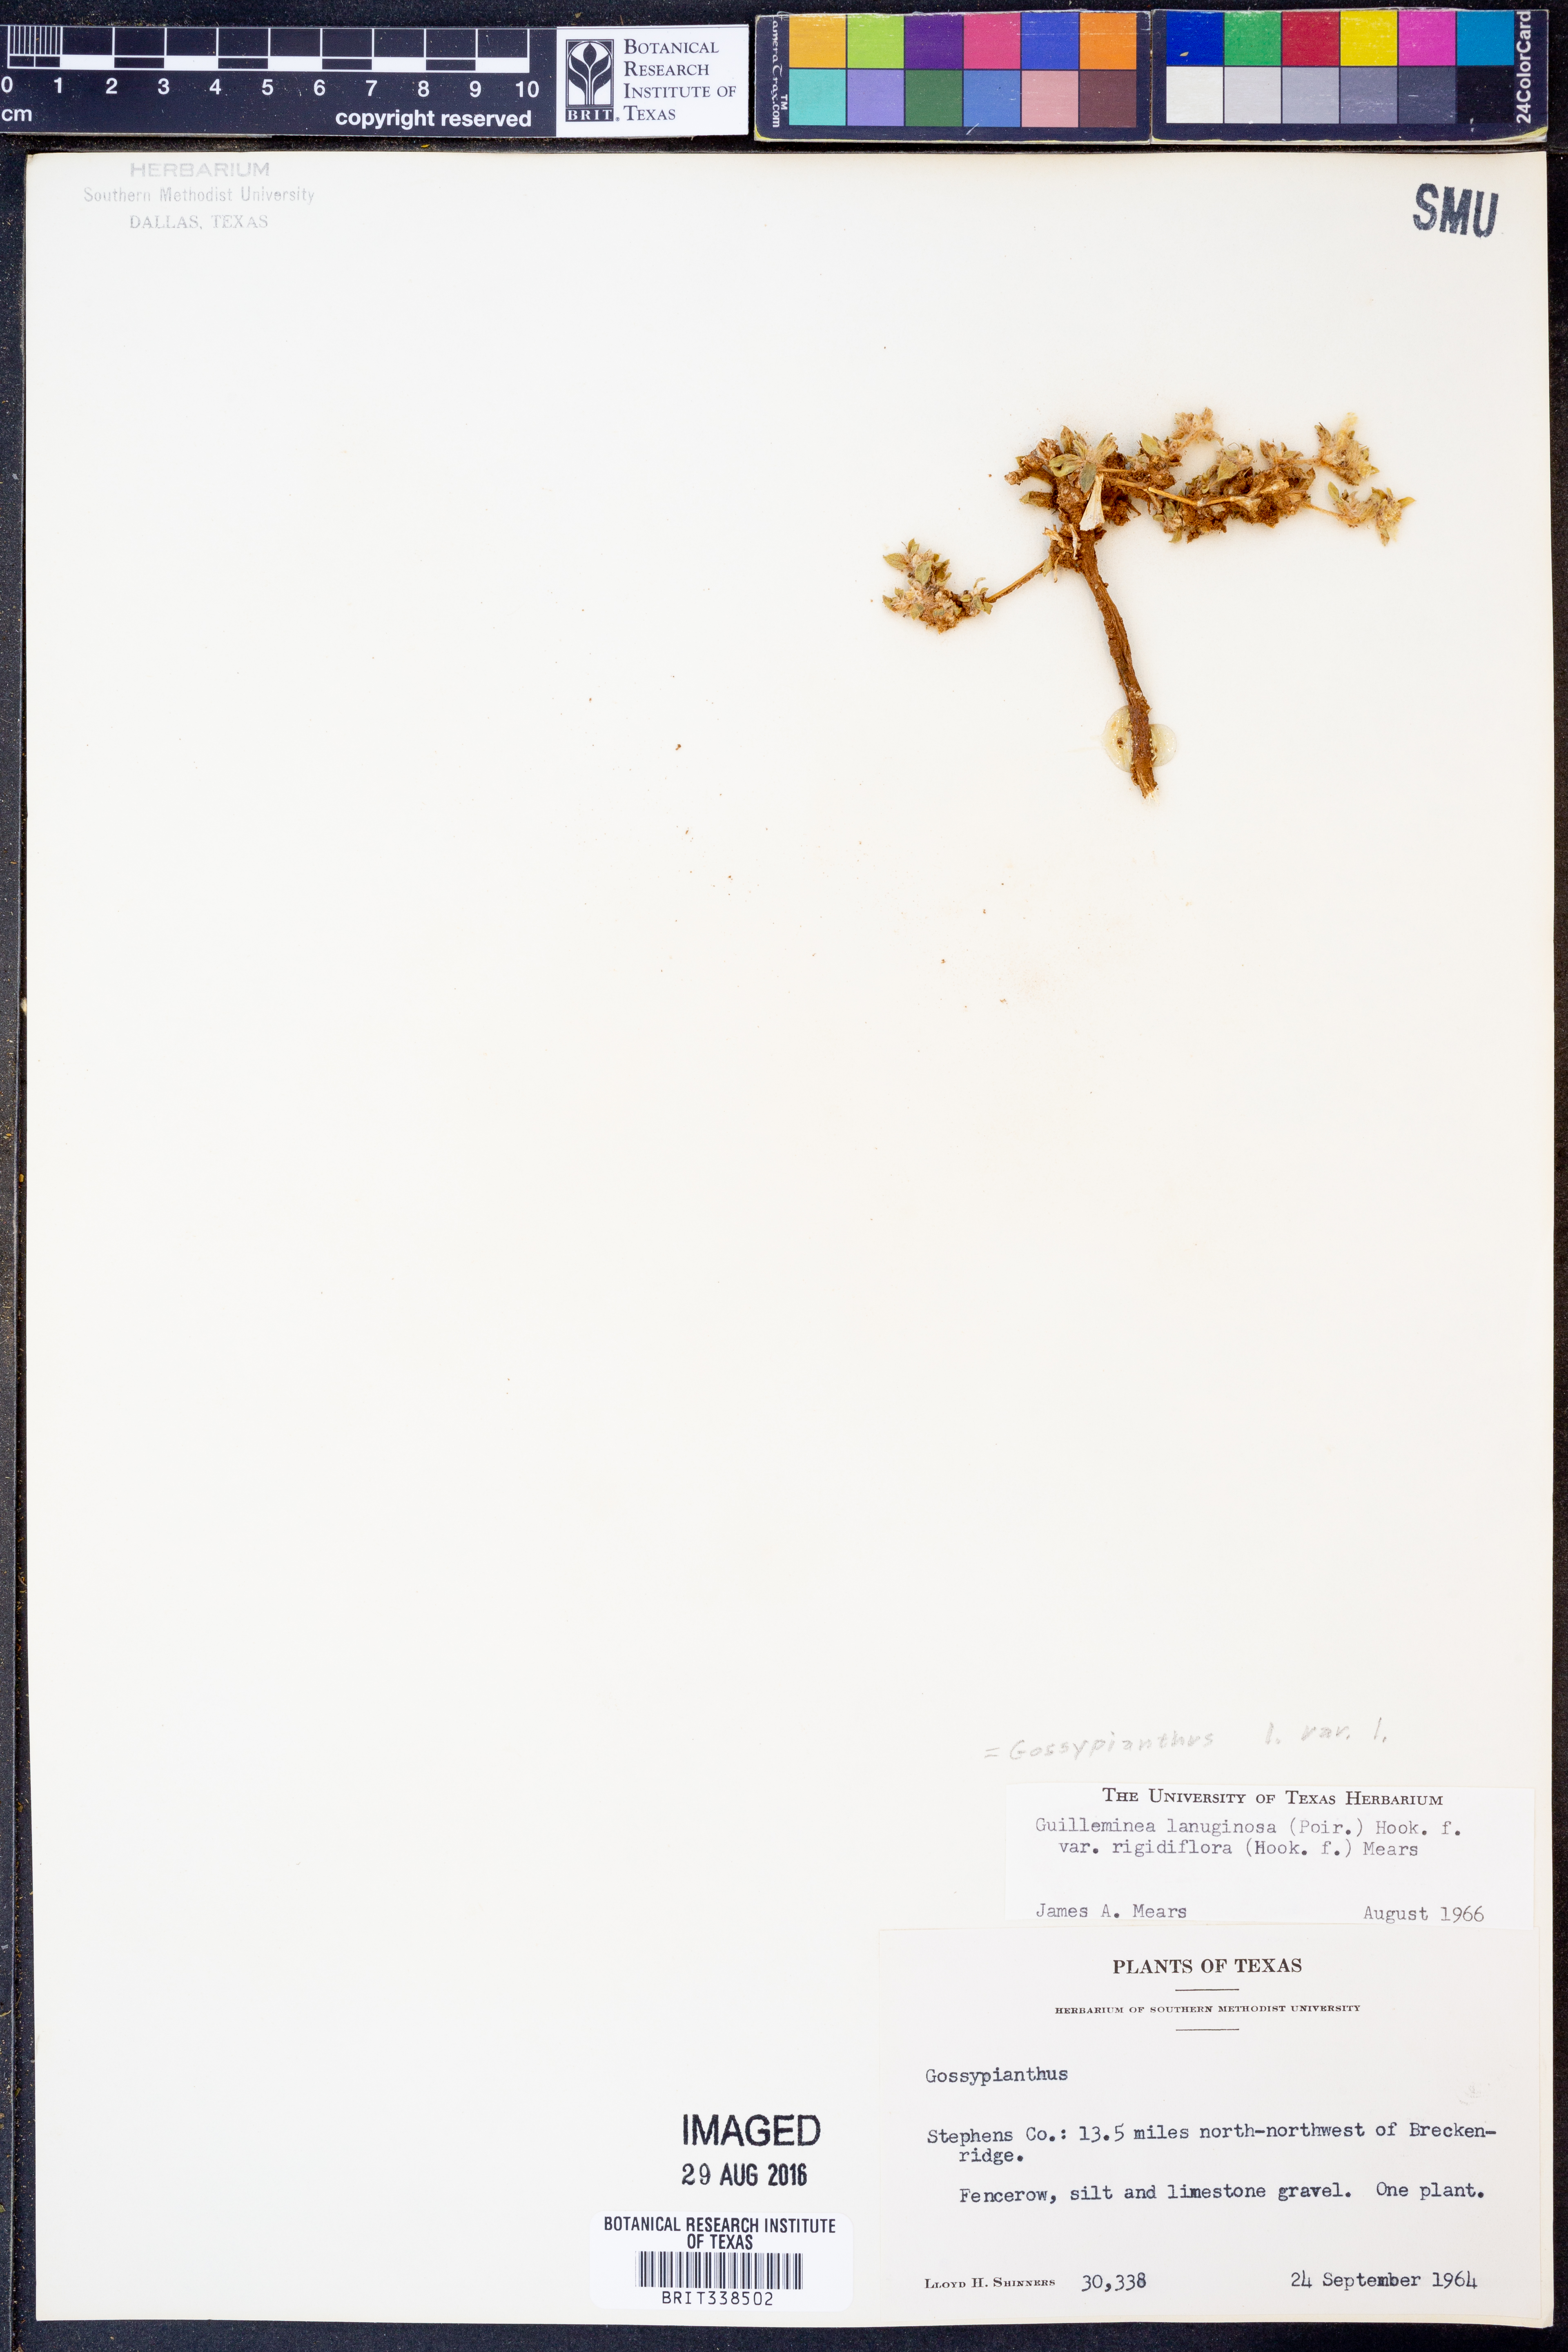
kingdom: Plantae
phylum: Tracheophyta
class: Magnoliopsida
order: Caryophyllales
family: Amaranthaceae
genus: Gomphrena
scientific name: Gomphrena lanuparonychioides
